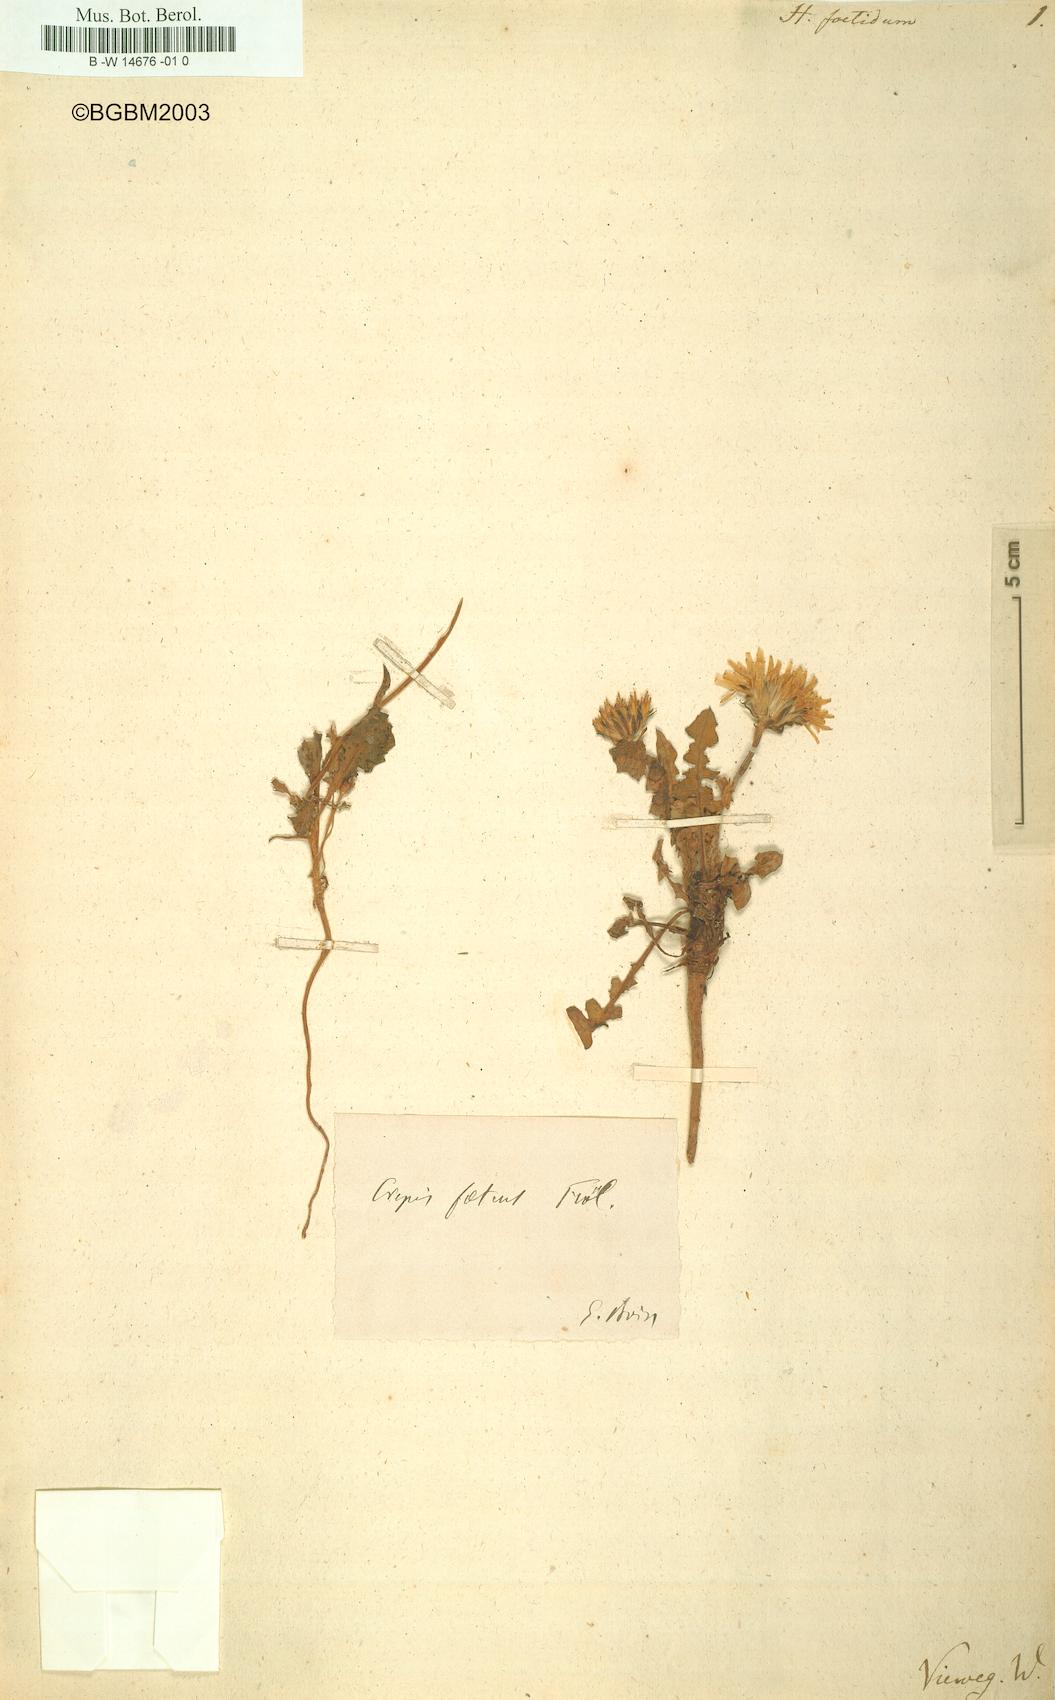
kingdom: Plantae
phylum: Tracheophyta
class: Magnoliopsida
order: Asterales
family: Asteraceae
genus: Crepis
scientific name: Crepis foetida
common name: Stinking hawk's-beard
